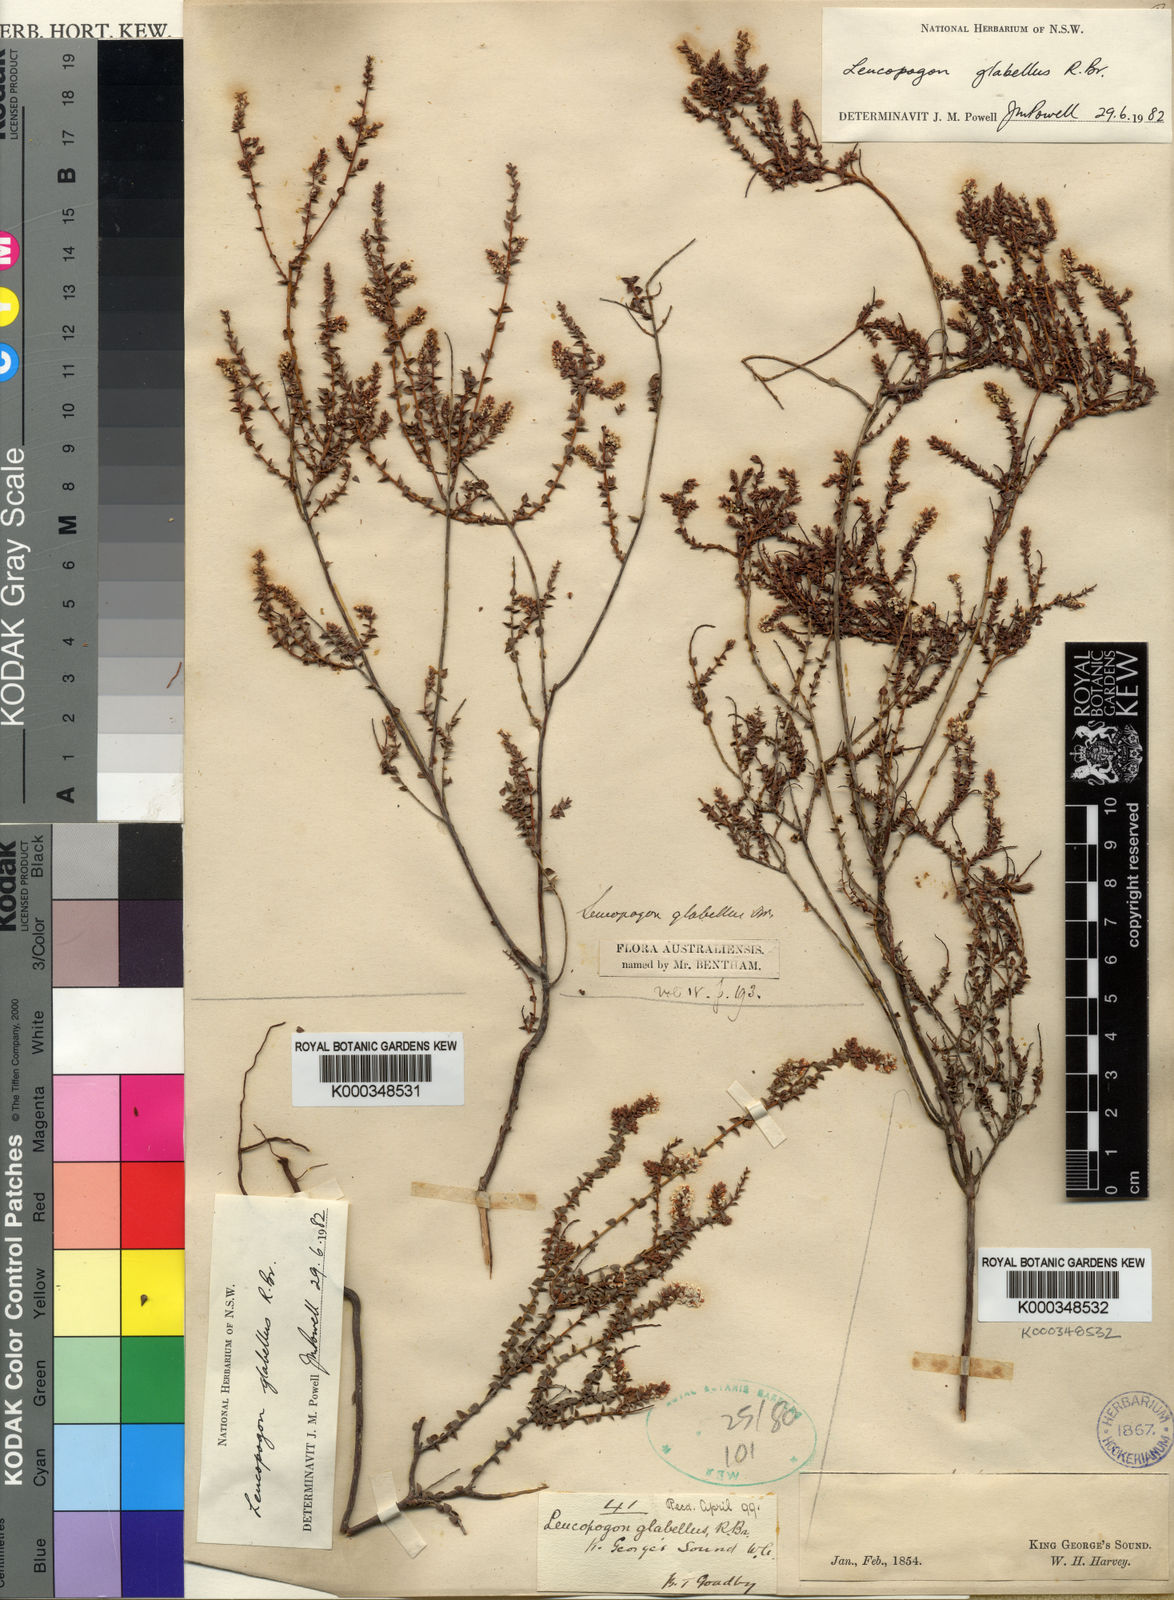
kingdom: Plantae
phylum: Tracheophyta
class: Magnoliopsida
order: Ericales
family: Ericaceae
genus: Leucopogon
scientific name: Leucopogon glabellus
